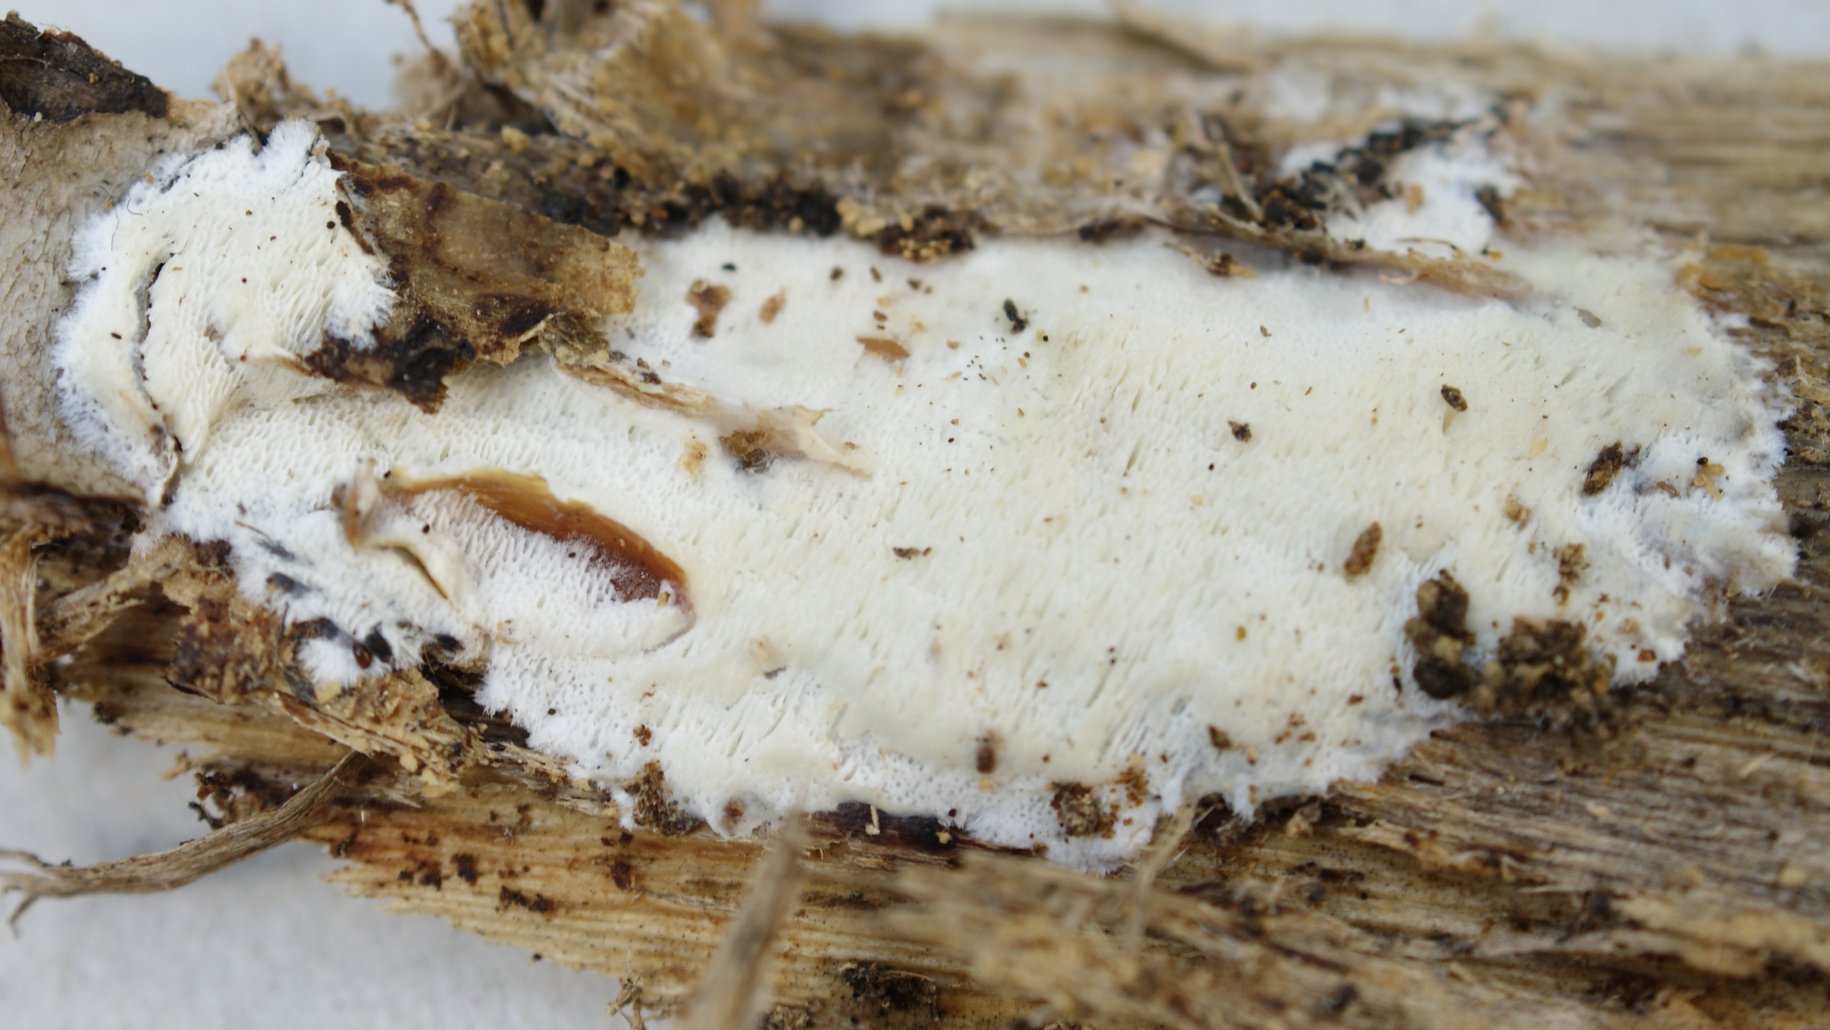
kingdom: Fungi
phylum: Basidiomycota
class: Agaricomycetes
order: Polyporales
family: Incrustoporiaceae
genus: Skeletocutis
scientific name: Skeletocutis nemoralis
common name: stor krystalporesvamp
